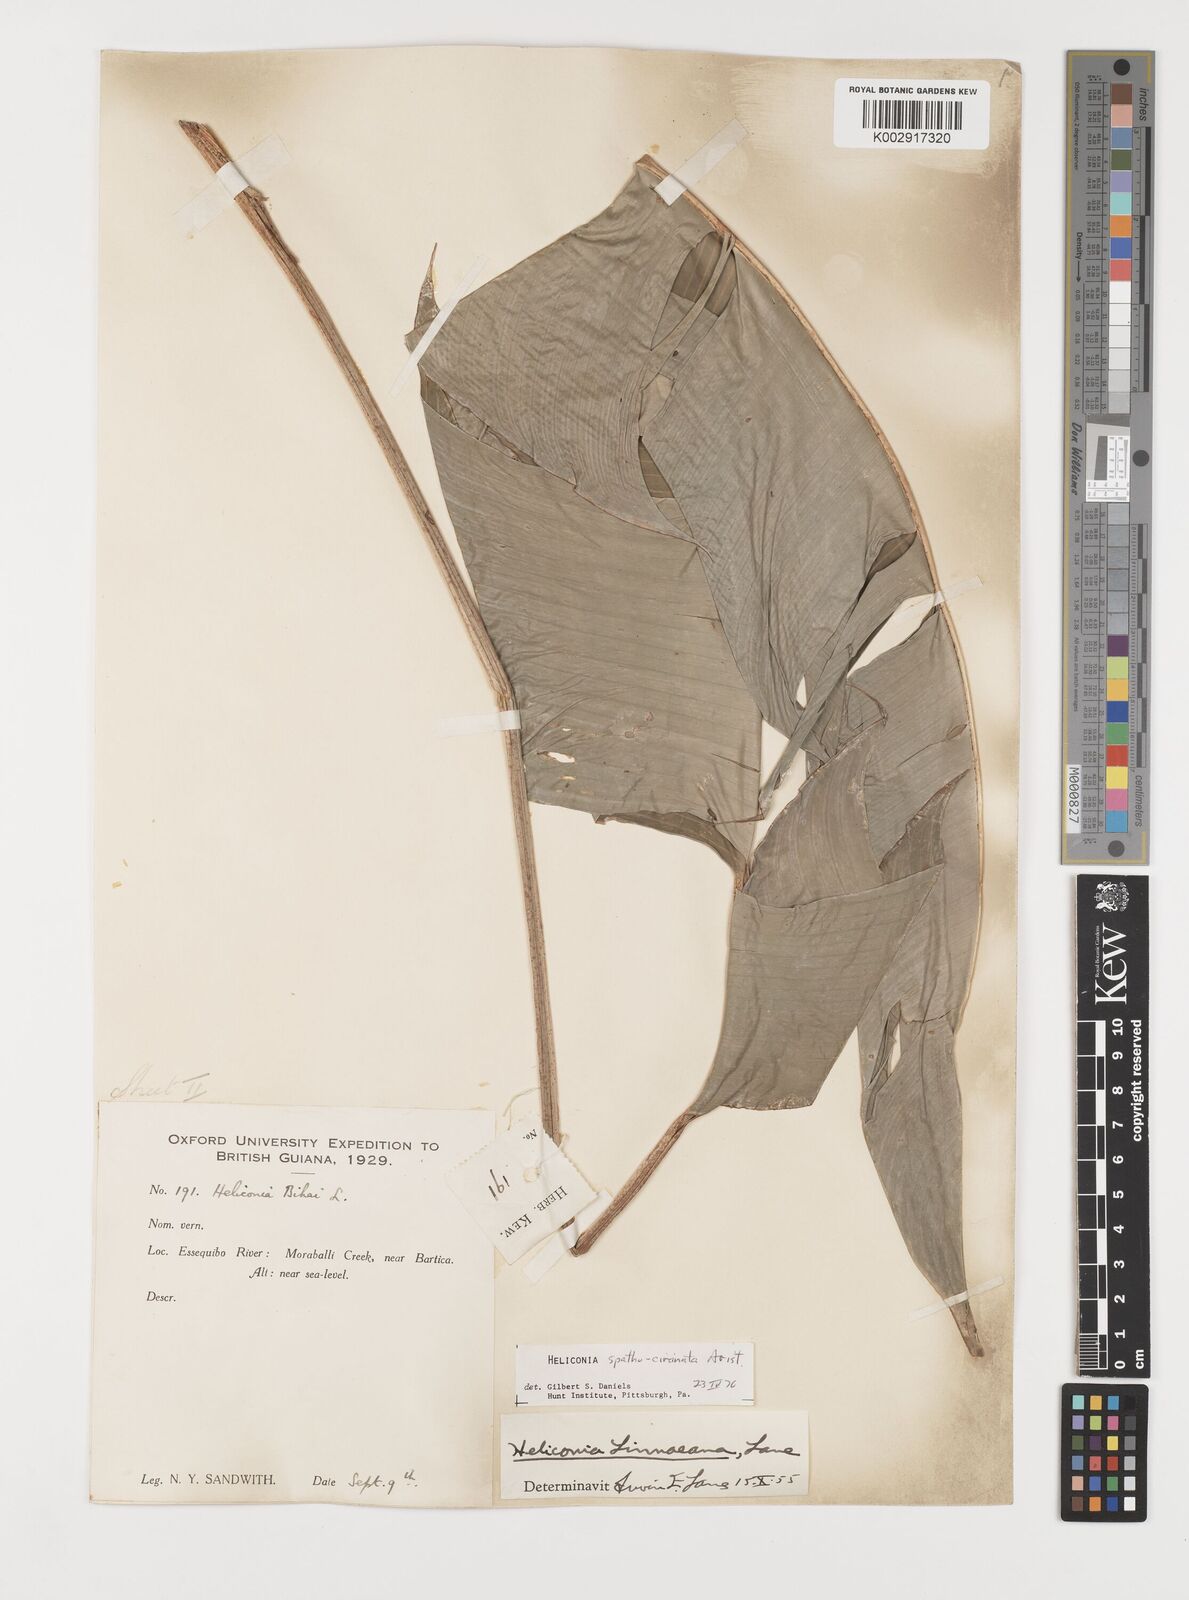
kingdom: Plantae
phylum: Tracheophyta
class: Liliopsida
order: Zingiberales
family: Heliconiaceae
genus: Heliconia
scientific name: Heliconia spathocircinata
